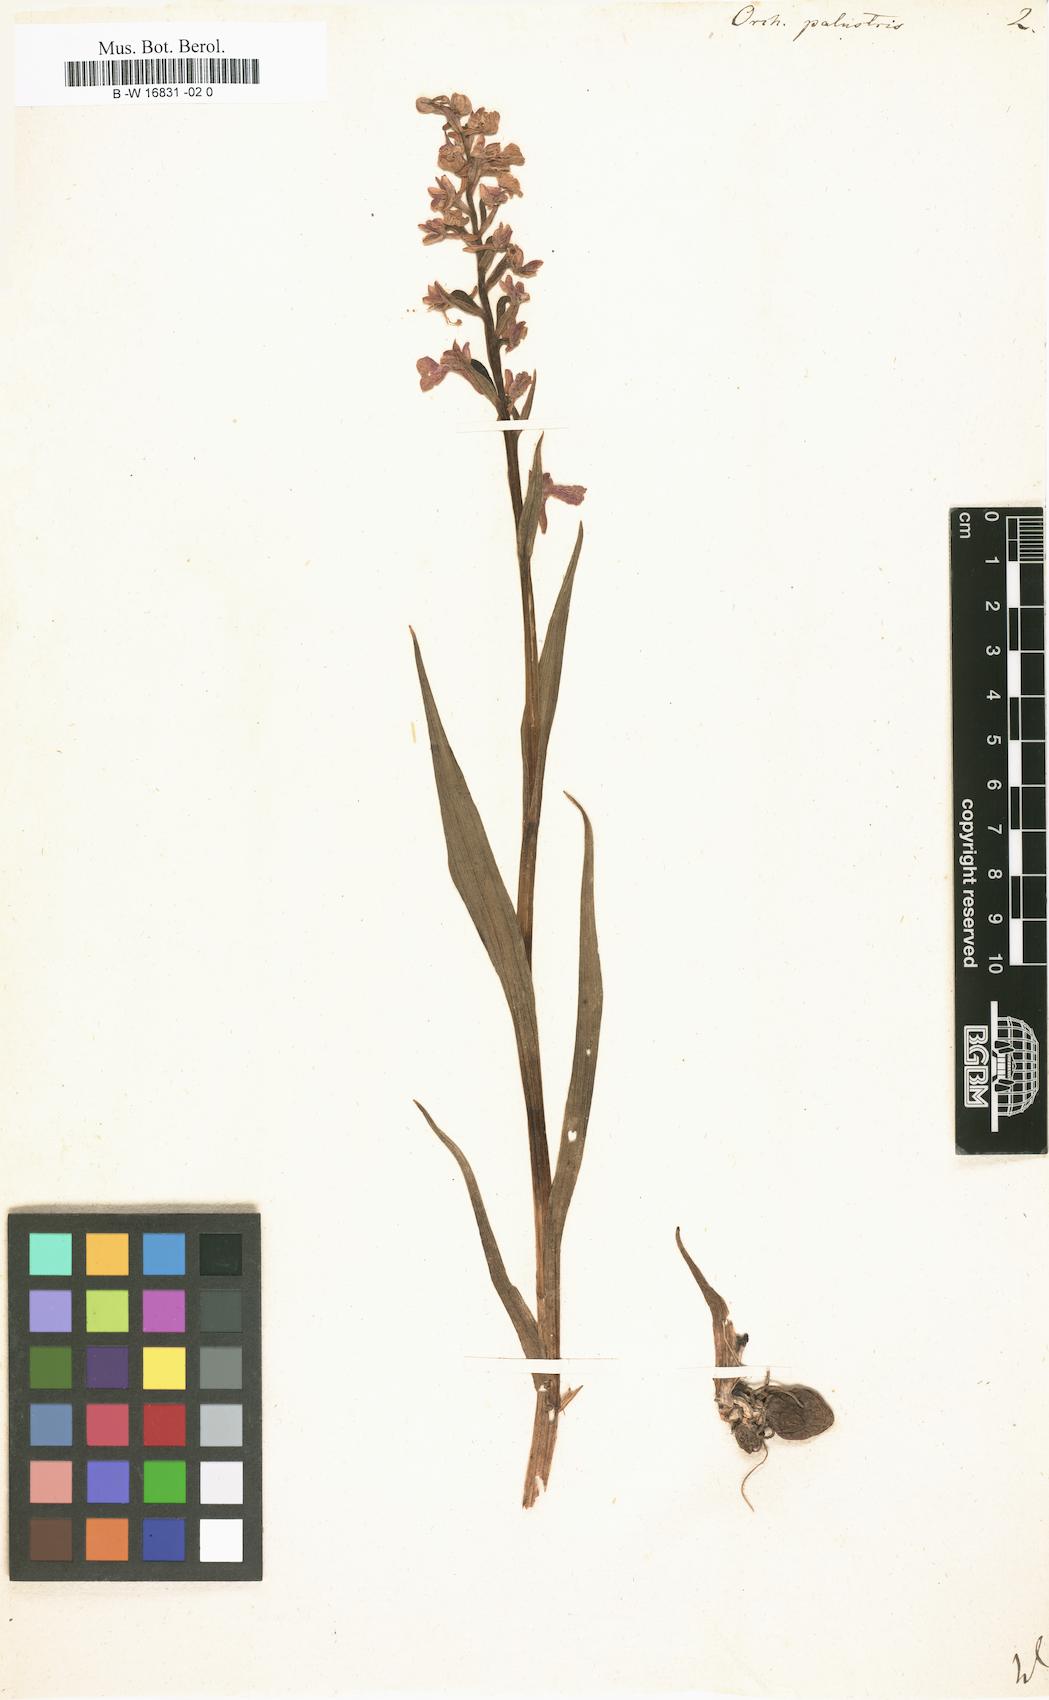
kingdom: Plantae
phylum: Tracheophyta
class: Liliopsida
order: Asparagales
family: Orchidaceae
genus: Anacamptis
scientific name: Anacamptis palustris
